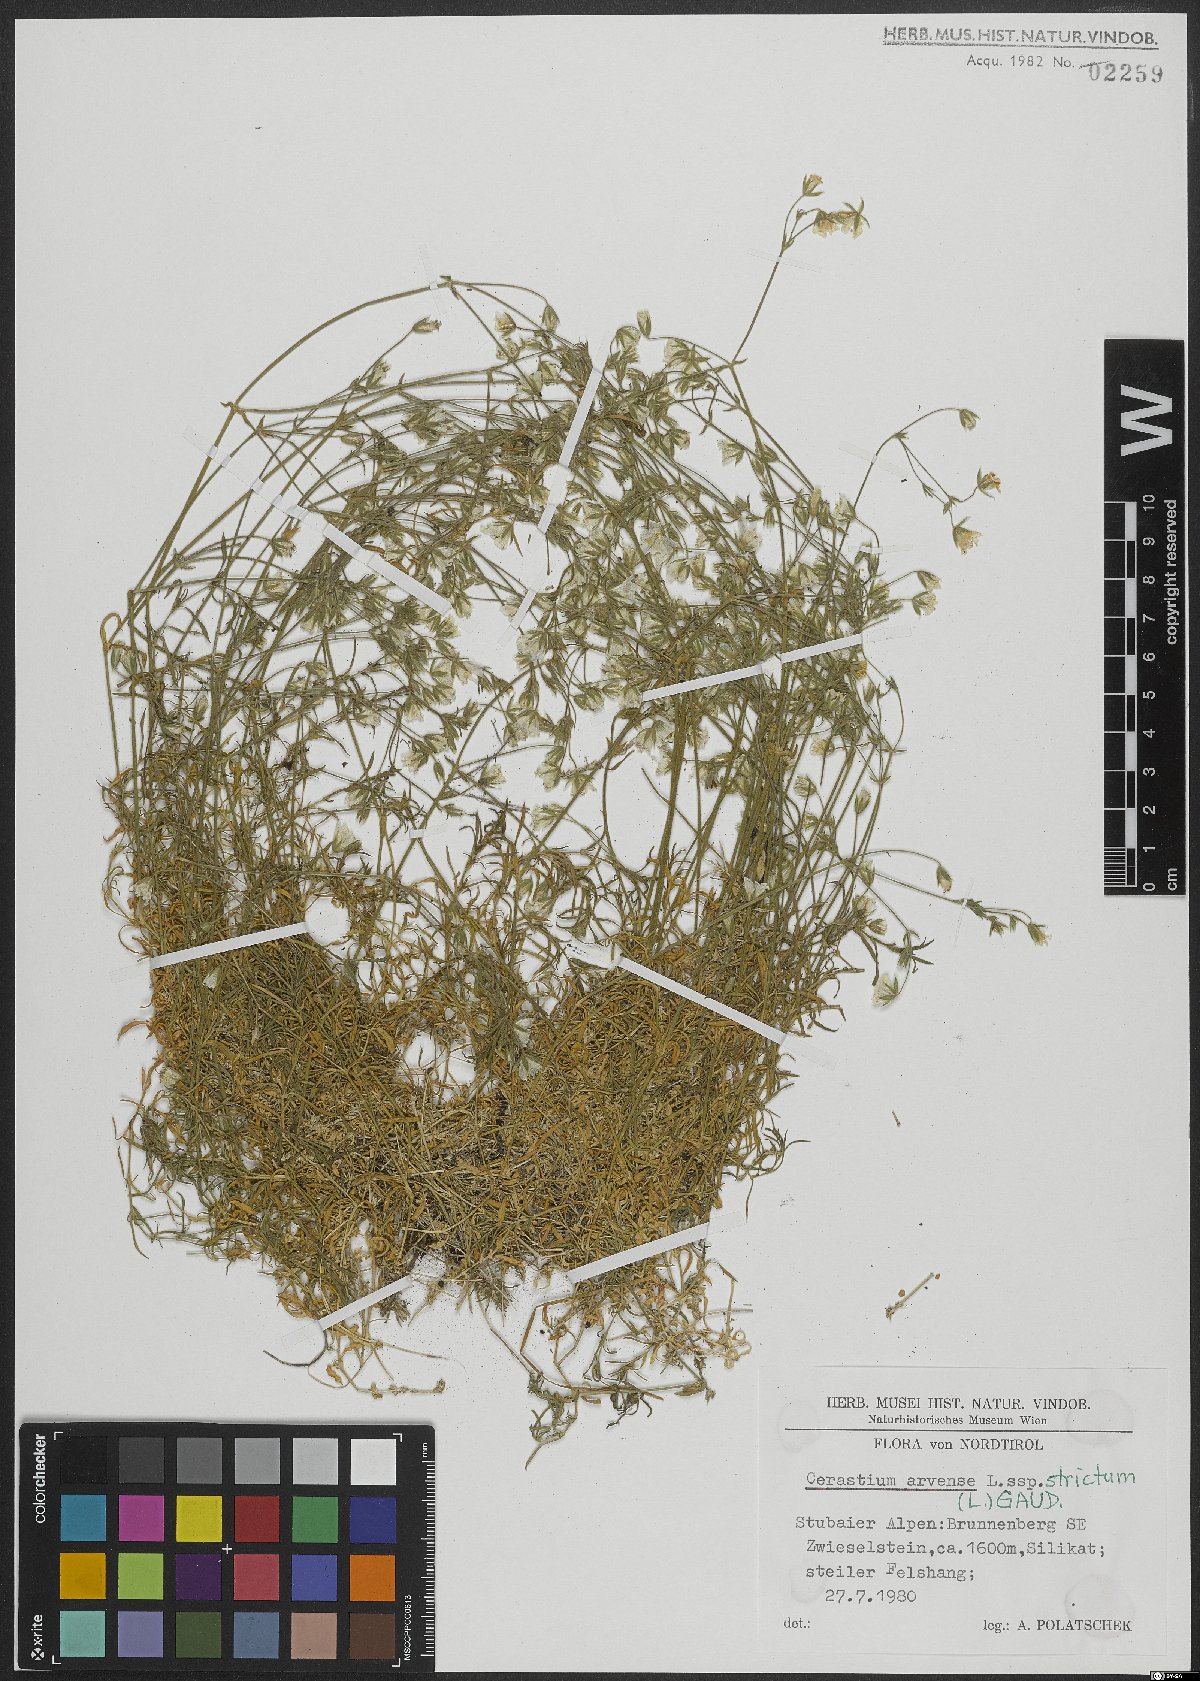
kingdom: Plantae
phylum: Tracheophyta
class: Magnoliopsida
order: Caryophyllales
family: Caryophyllaceae
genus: Cerastium
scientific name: Cerastium elongatum
